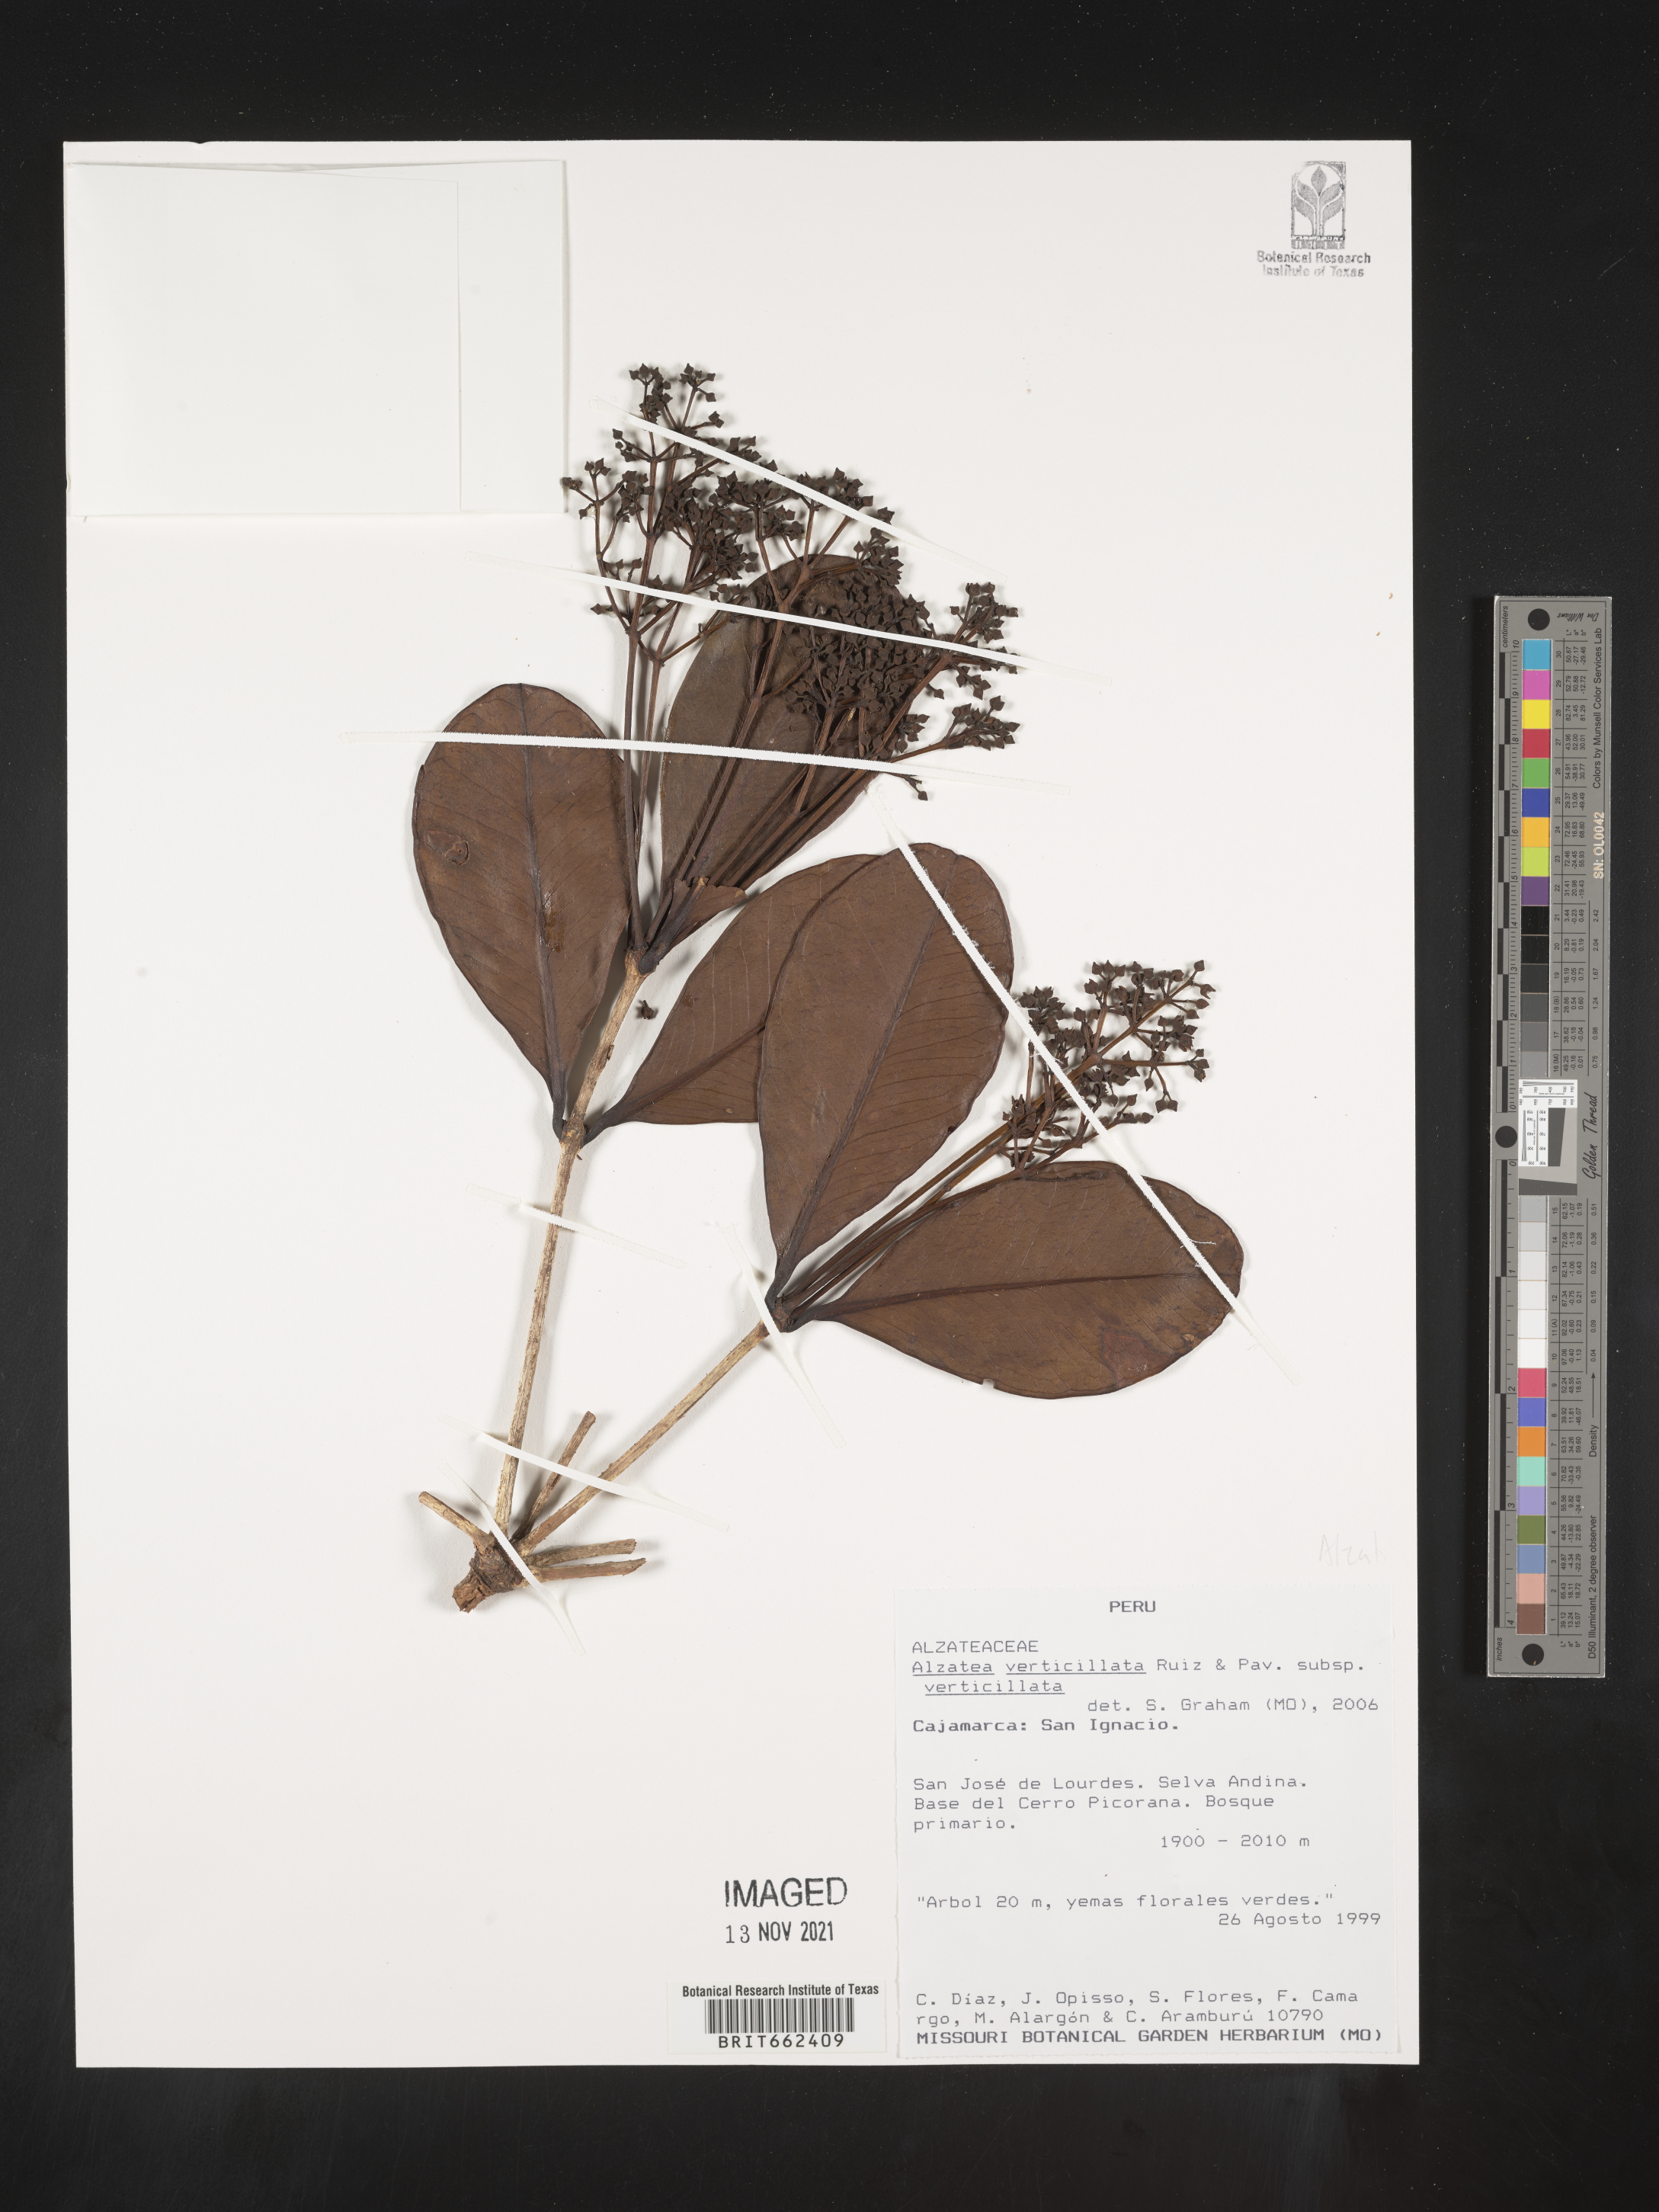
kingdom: Plantae
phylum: Tracheophyta
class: Magnoliopsida
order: Myrtales
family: Alzateaceae
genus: Alzatea
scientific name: Alzatea
